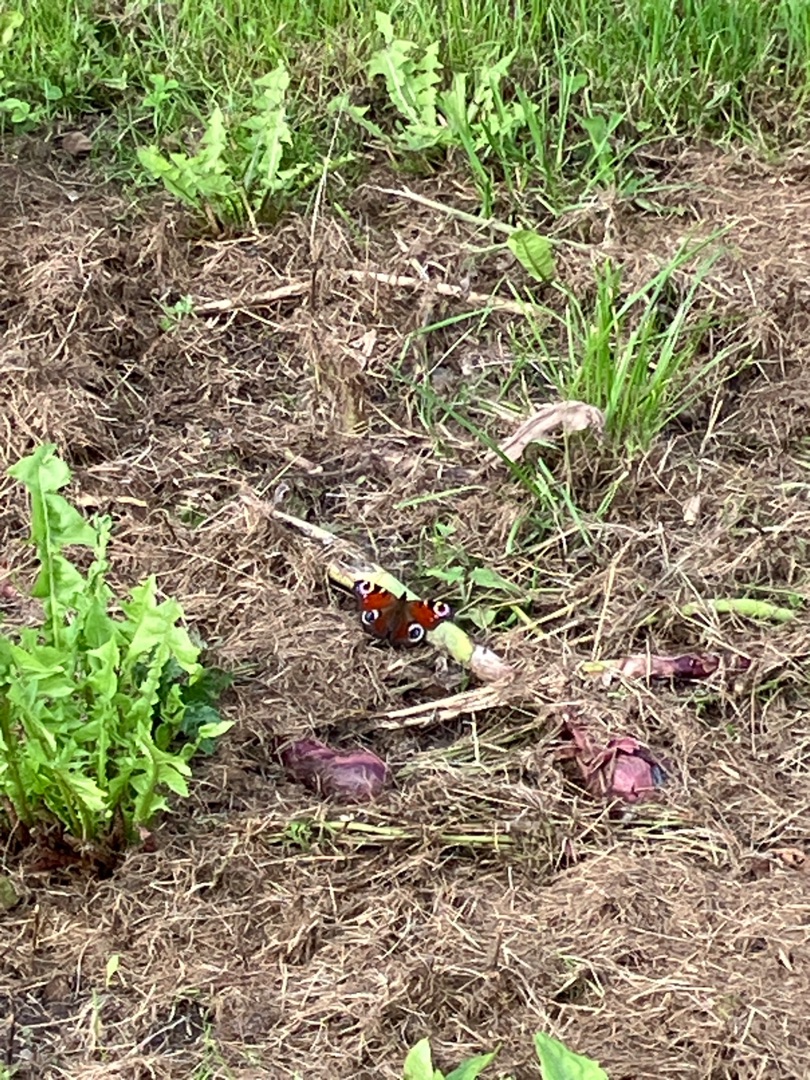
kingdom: Animalia
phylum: Arthropoda
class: Insecta
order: Lepidoptera
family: Nymphalidae
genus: Aglais
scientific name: Aglais io
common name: Dagpåfugleøje
